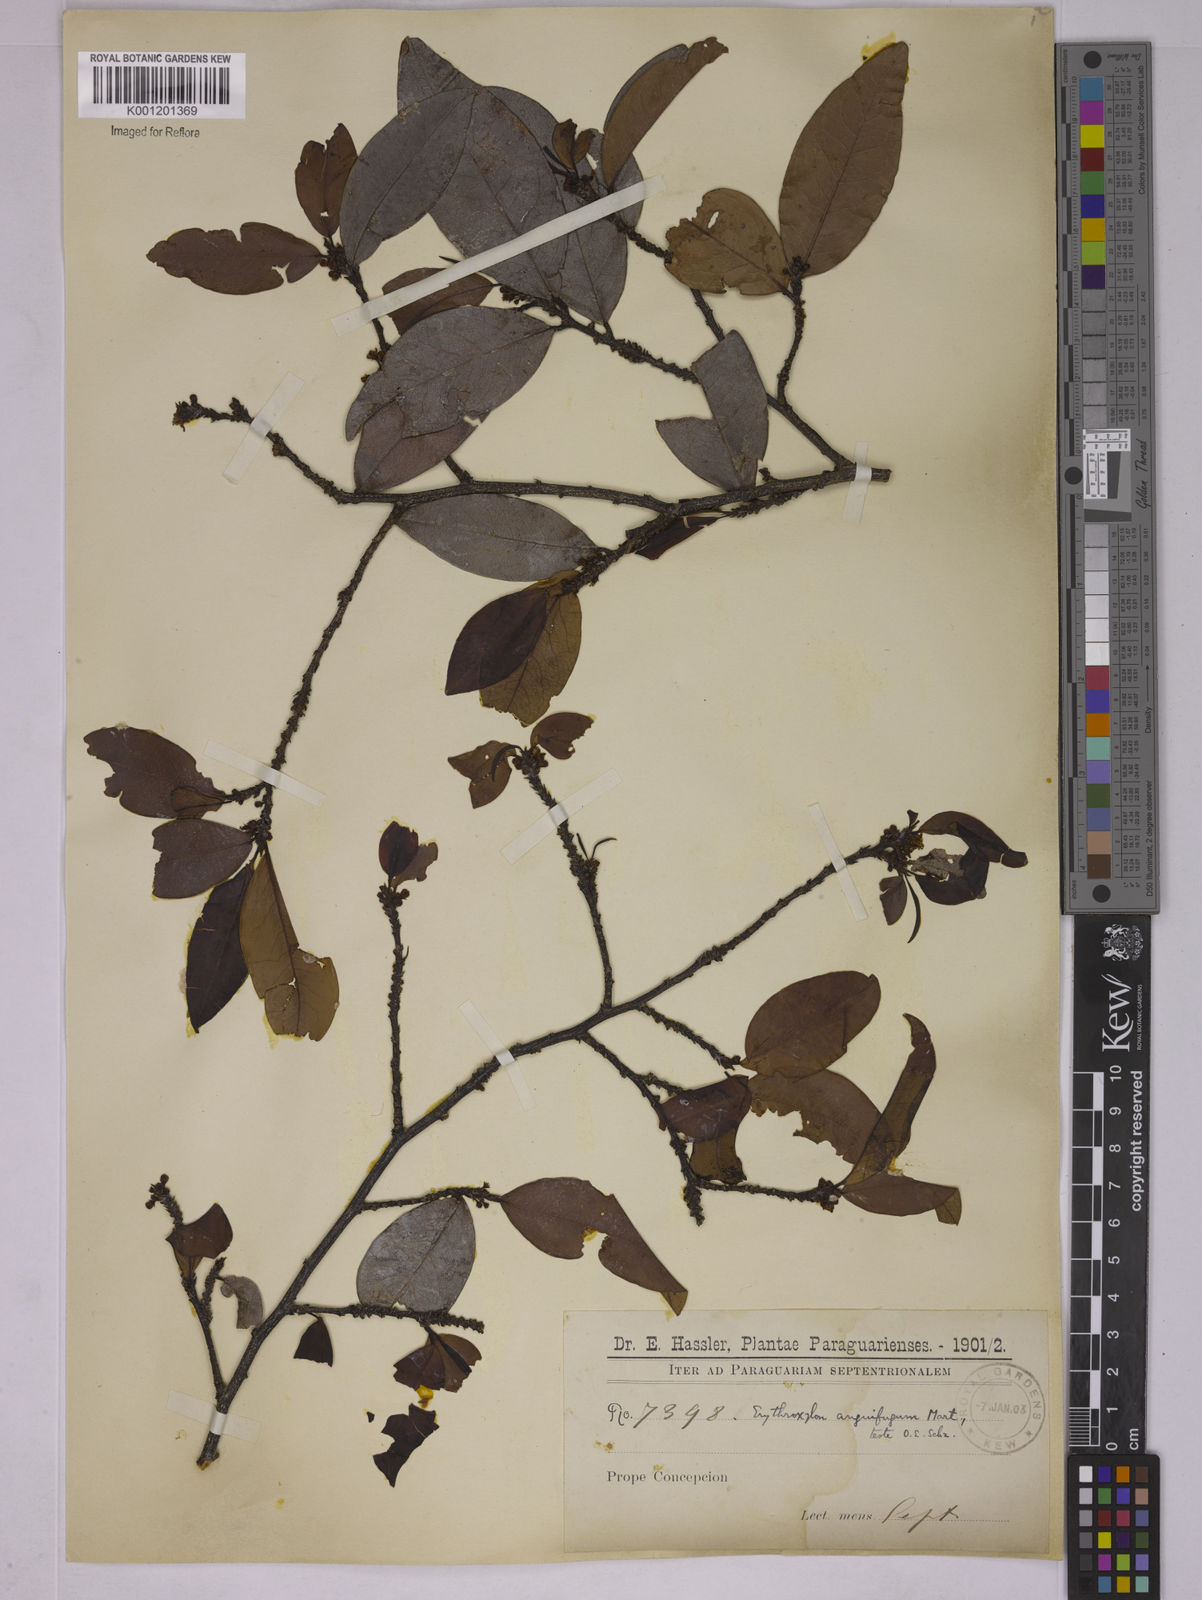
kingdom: Plantae
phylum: Tracheophyta
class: Magnoliopsida
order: Malpighiales
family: Erythroxylaceae
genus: Erythroxylum
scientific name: Erythroxylum anguifugum
